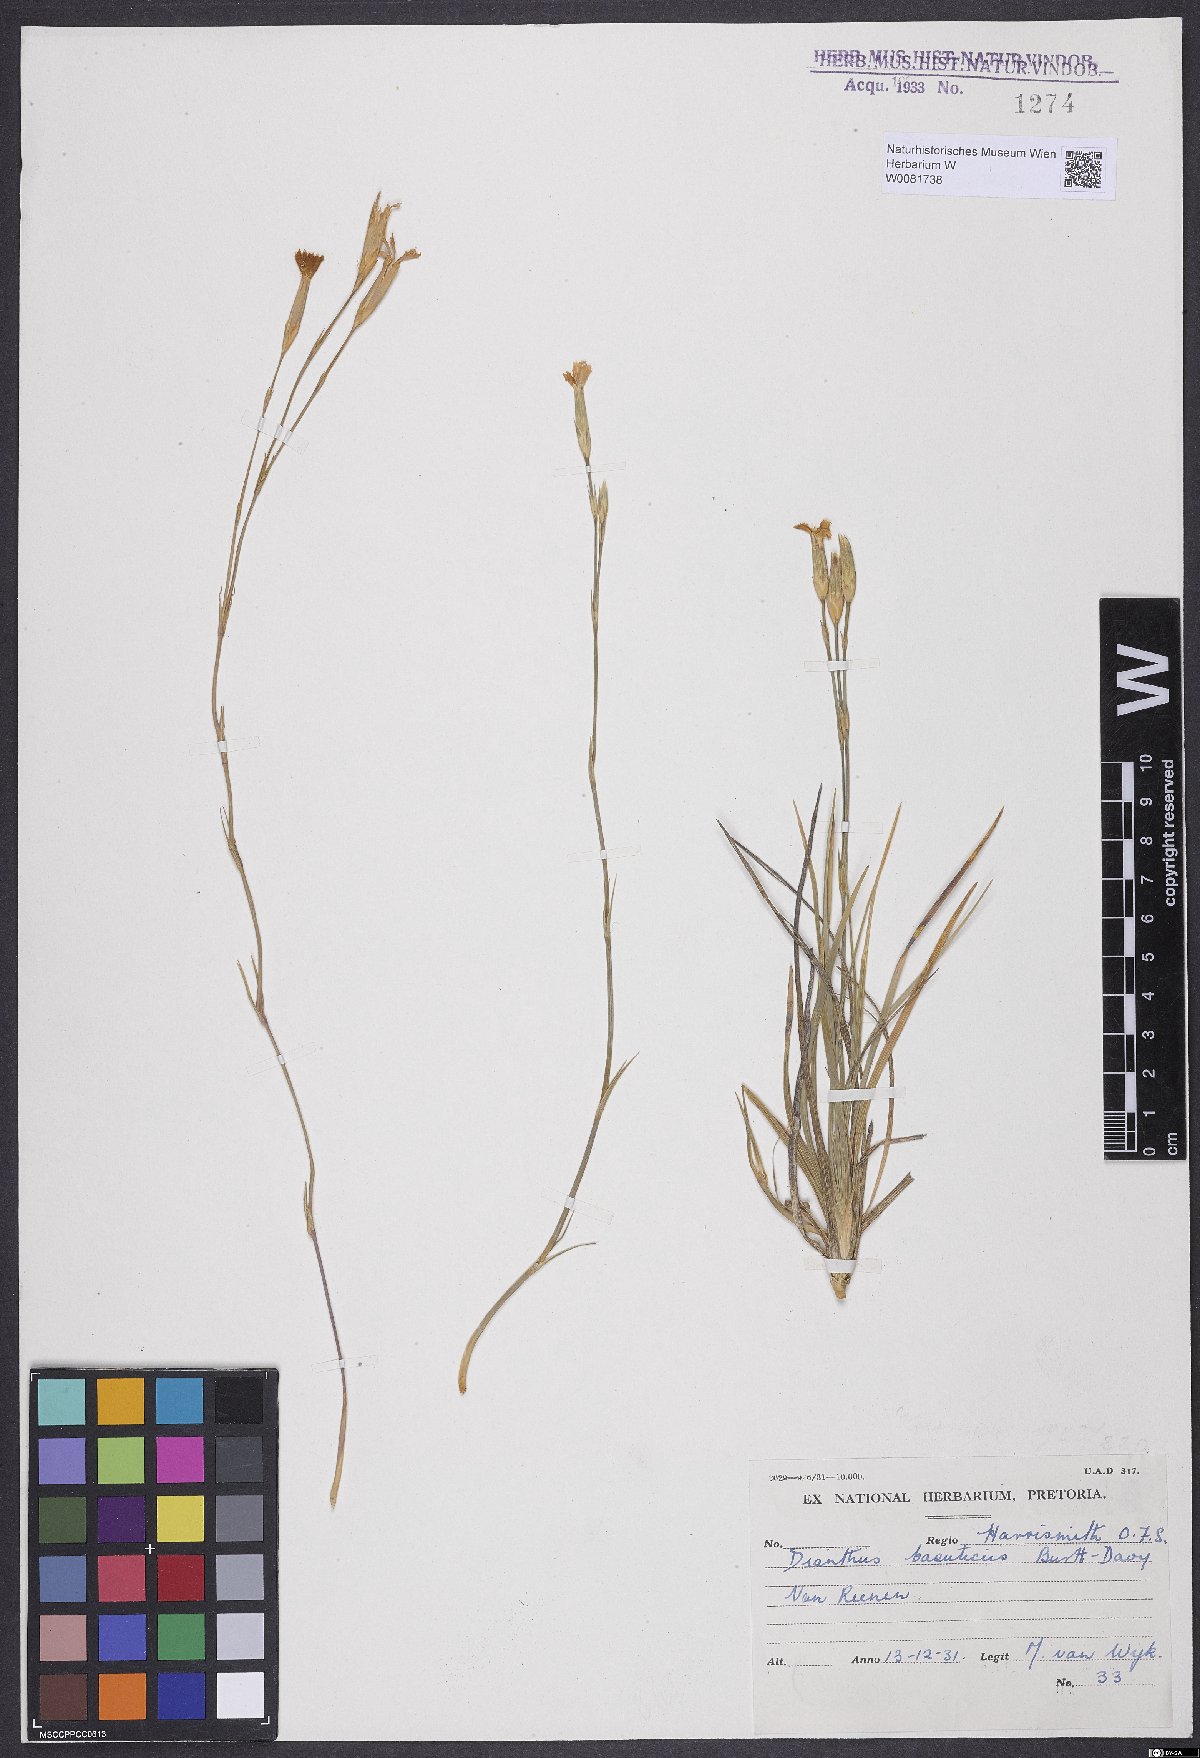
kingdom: Plantae
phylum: Tracheophyta
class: Magnoliopsida
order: Caryophyllales
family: Caryophyllaceae
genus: Dianthus
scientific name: Dianthus basuticus
